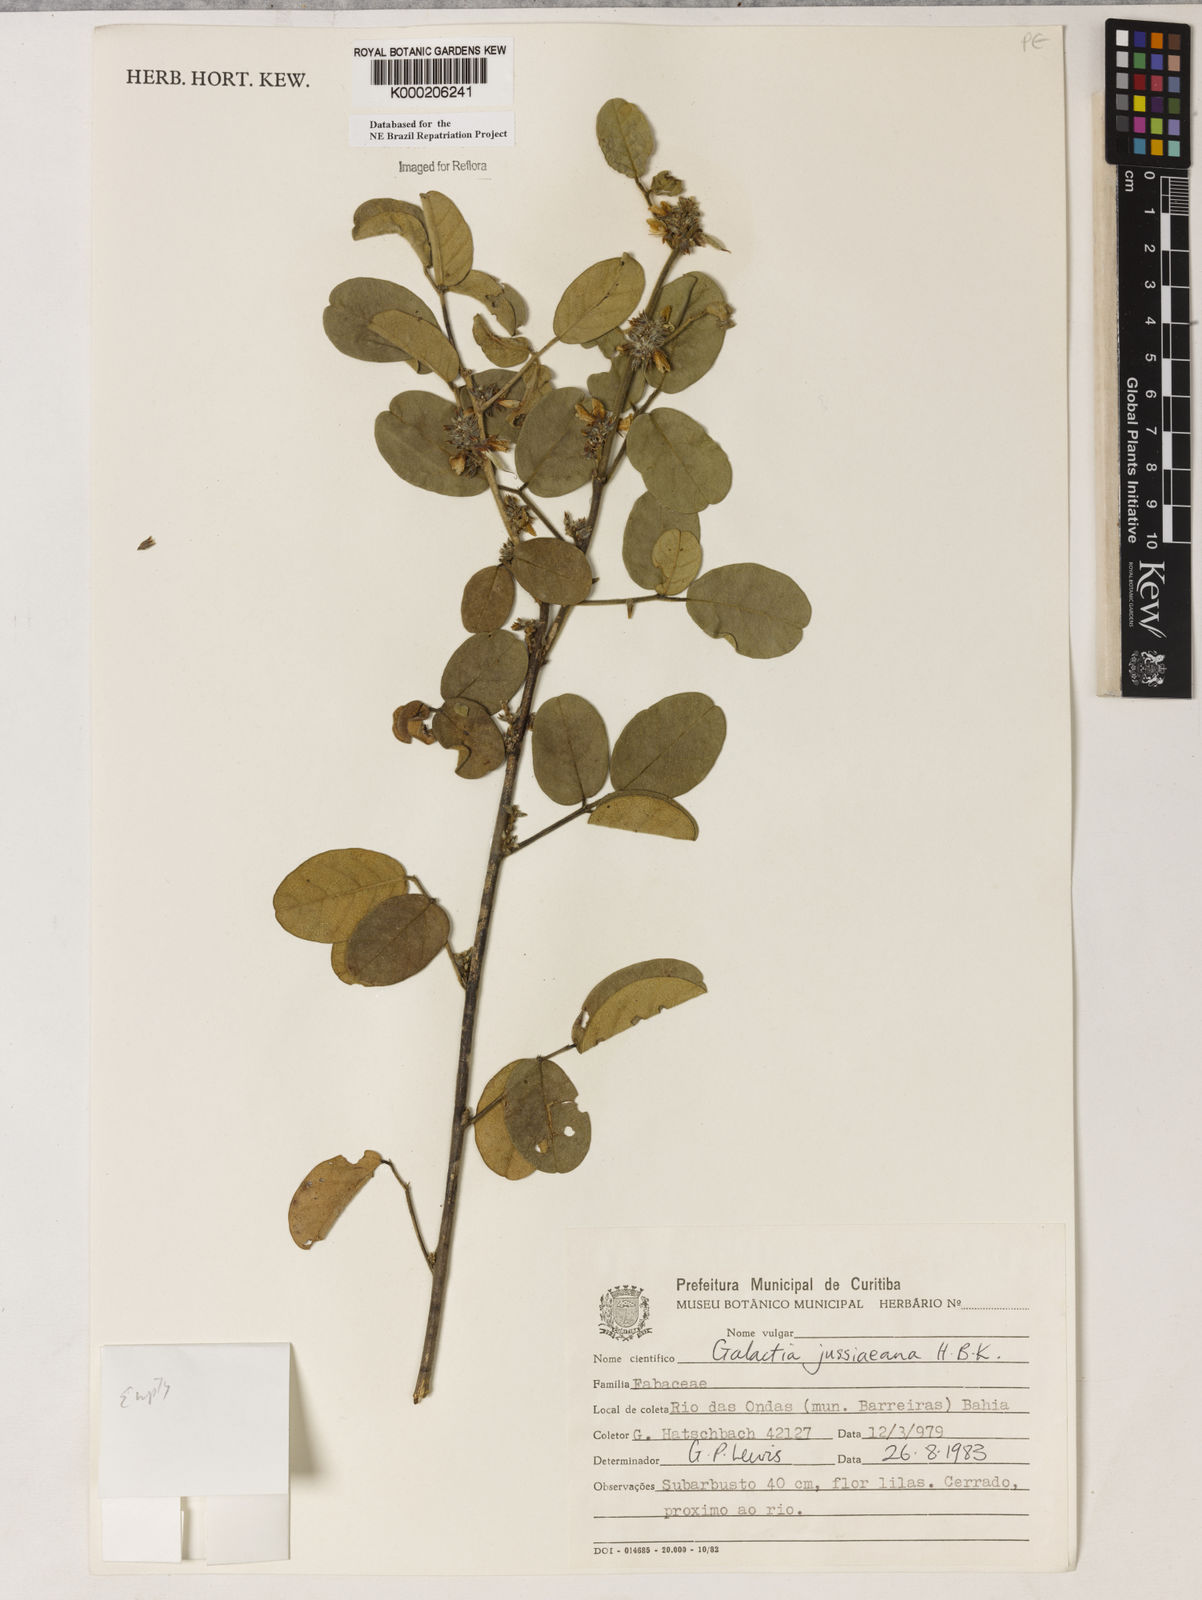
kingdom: Plantae
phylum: Tracheophyta
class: Magnoliopsida
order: Fabales
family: Fabaceae
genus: Galactia
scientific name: Galactia jussiaeana
